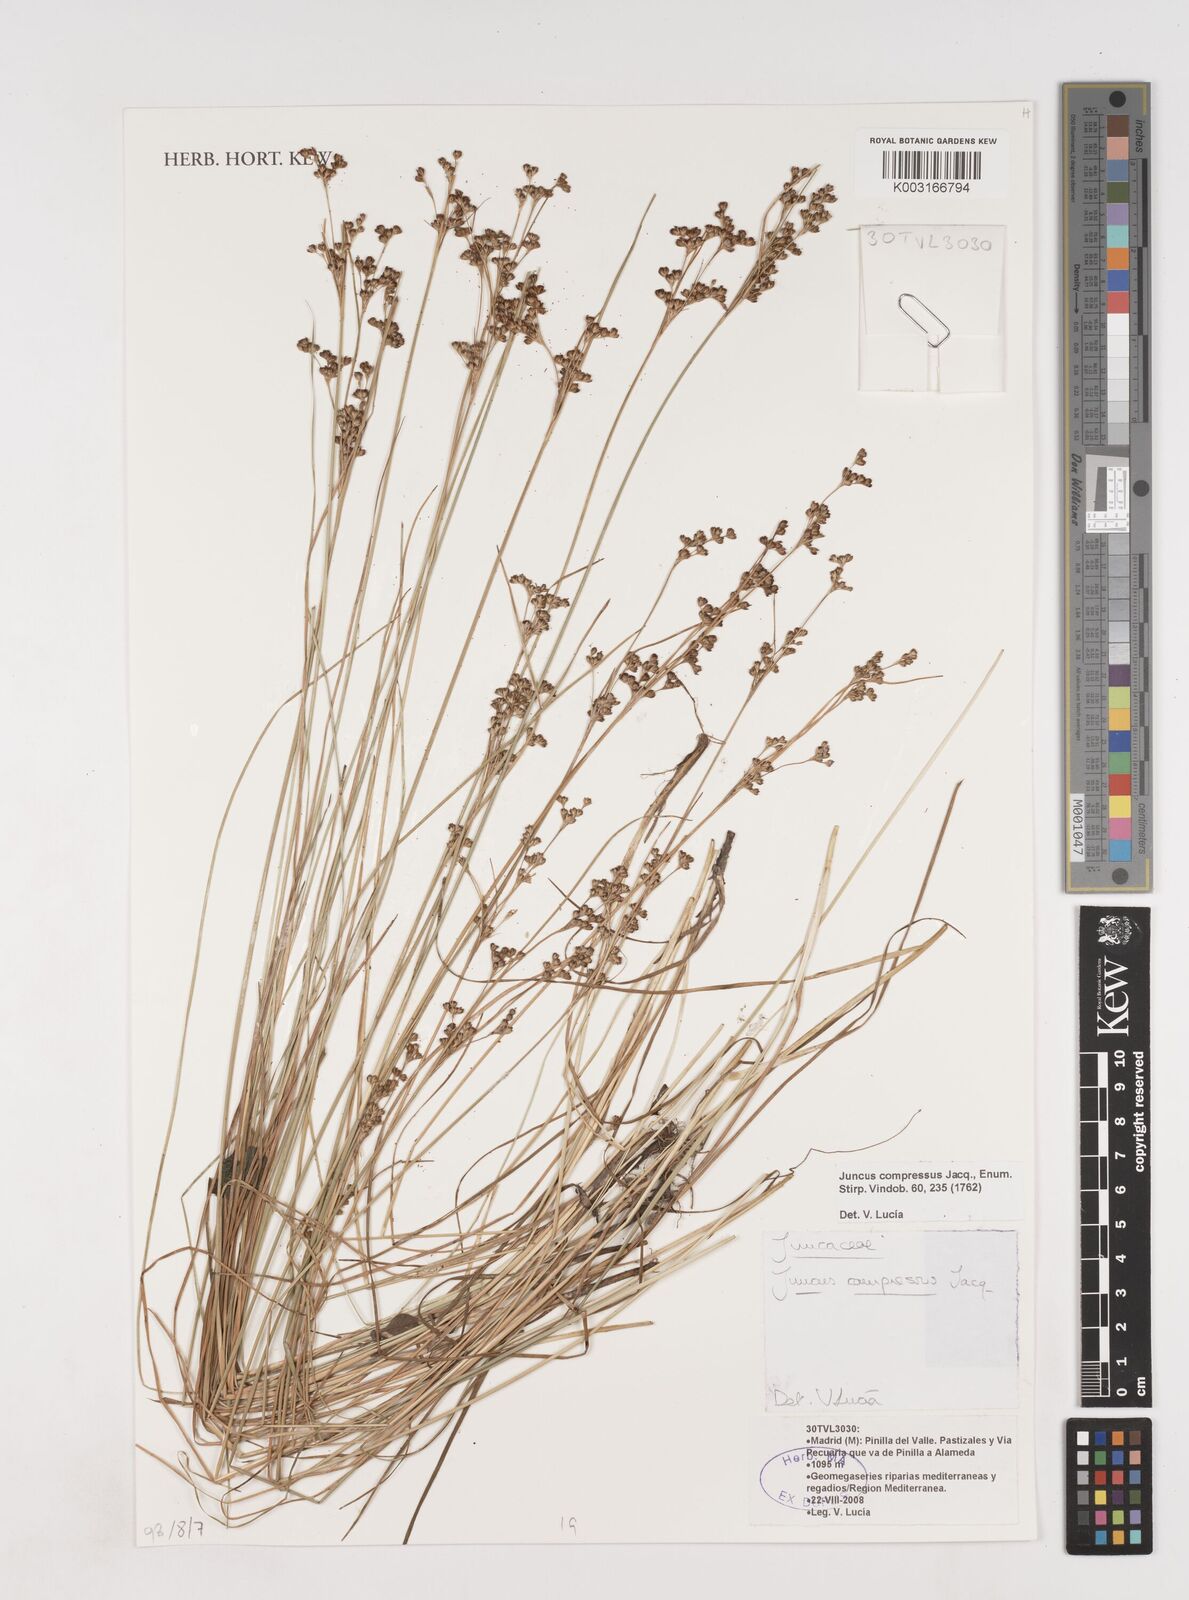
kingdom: Plantae
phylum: Tracheophyta
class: Liliopsida
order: Poales
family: Juncaceae
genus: Juncus
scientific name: Juncus compressus
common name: Round-fruited rush
